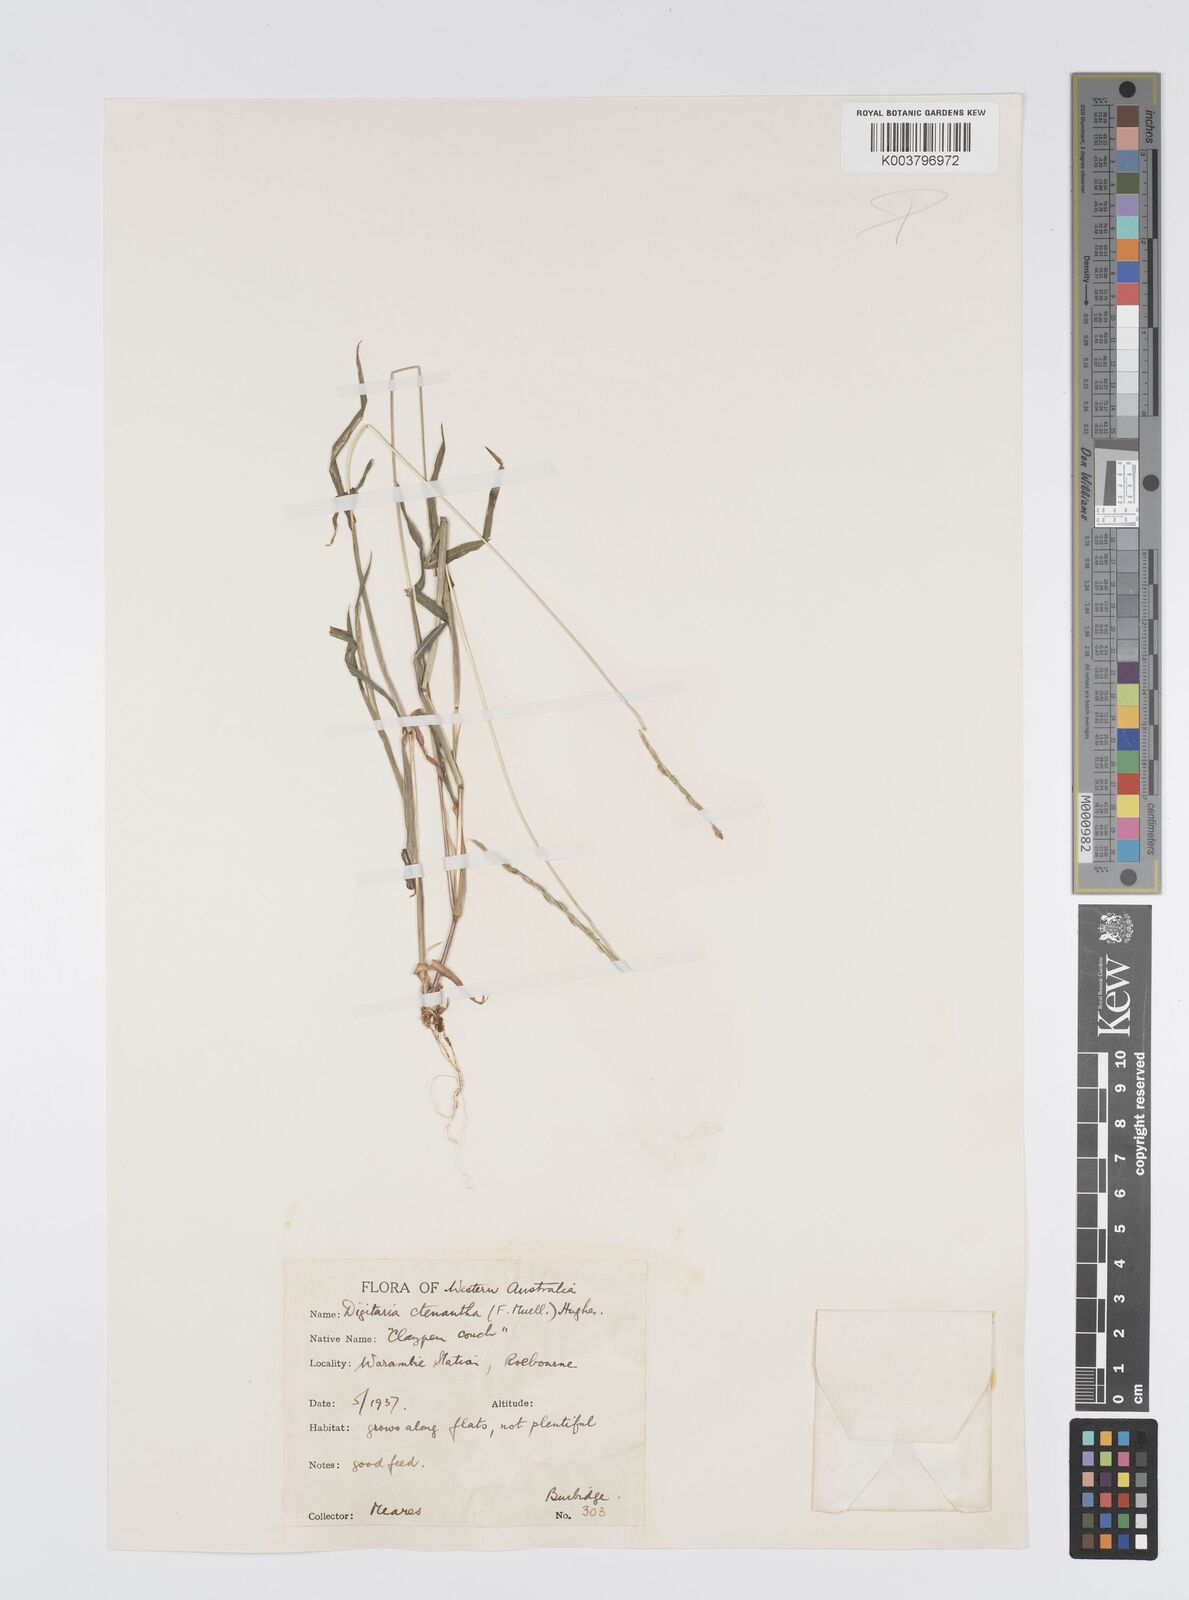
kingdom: Plantae
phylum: Tracheophyta
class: Liliopsida
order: Poales
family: Poaceae
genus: Digitaria
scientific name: Digitaria ctenantha
